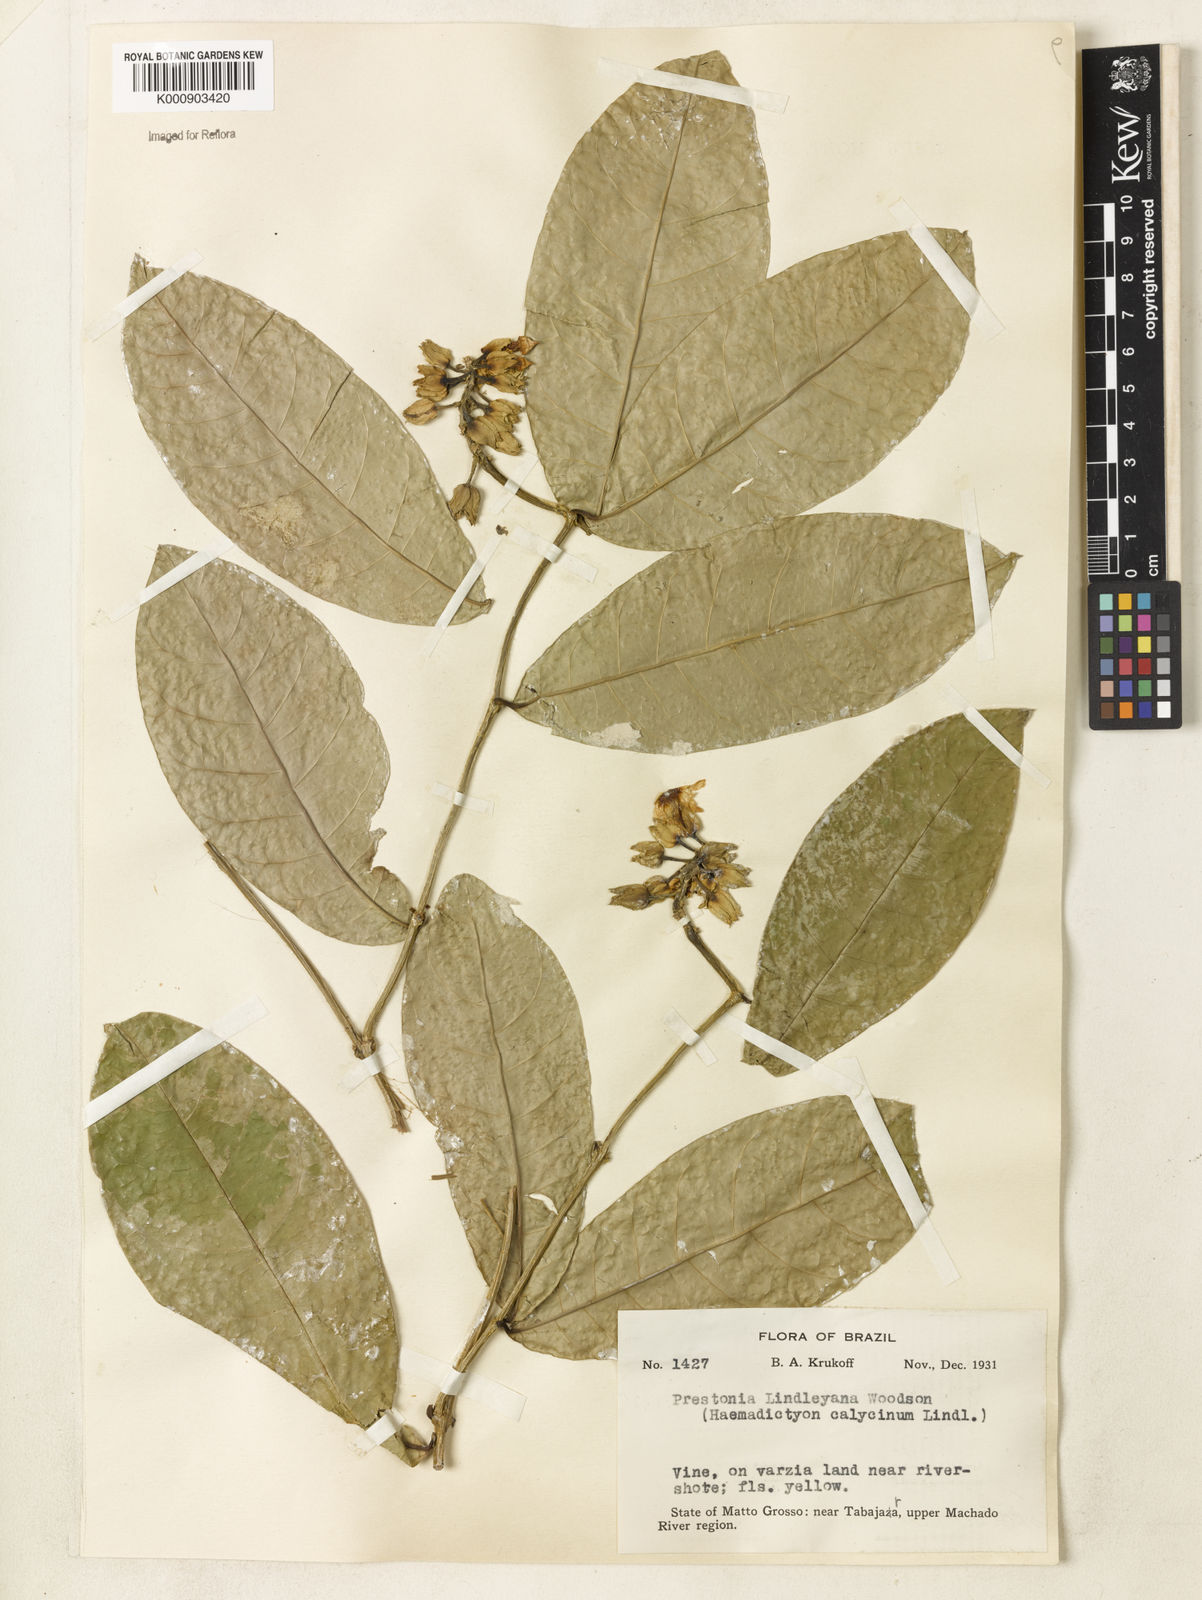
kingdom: Plantae
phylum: Tracheophyta
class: Magnoliopsida
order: Gentianales
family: Apocynaceae
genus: Prestonia
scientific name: Prestonia lindleyana
